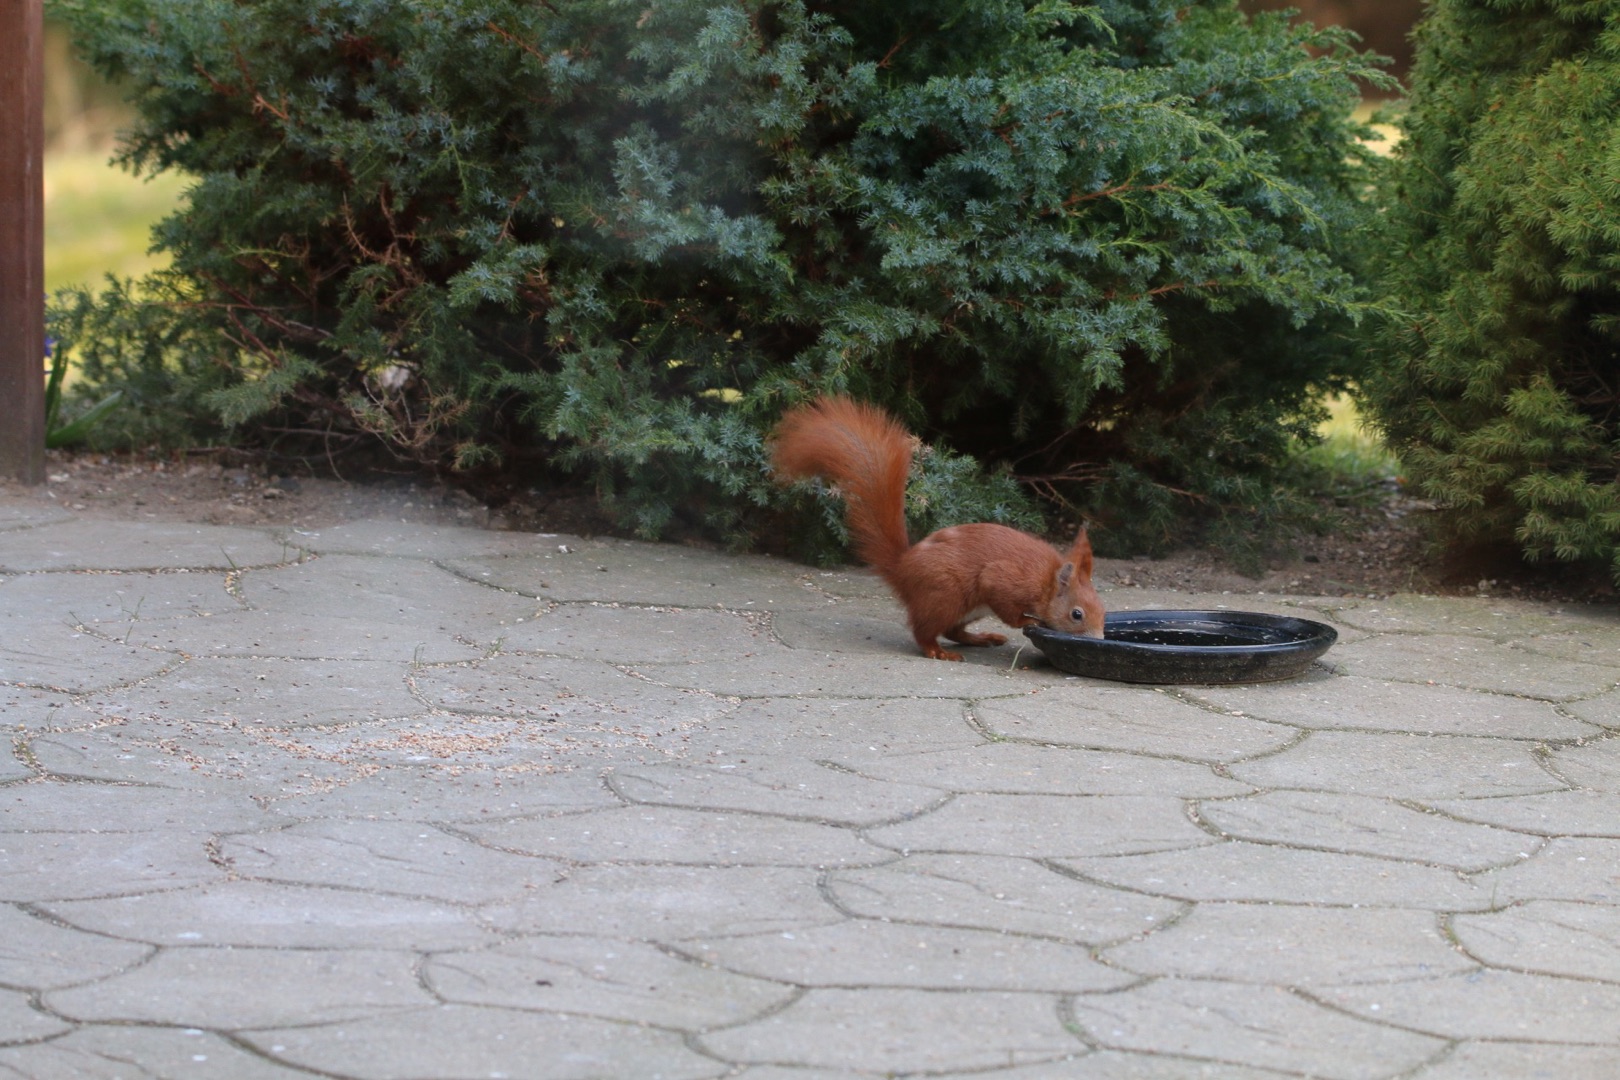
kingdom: Animalia
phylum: Chordata
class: Mammalia
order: Rodentia
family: Sciuridae
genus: Sciurus
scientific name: Sciurus vulgaris
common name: Egern
